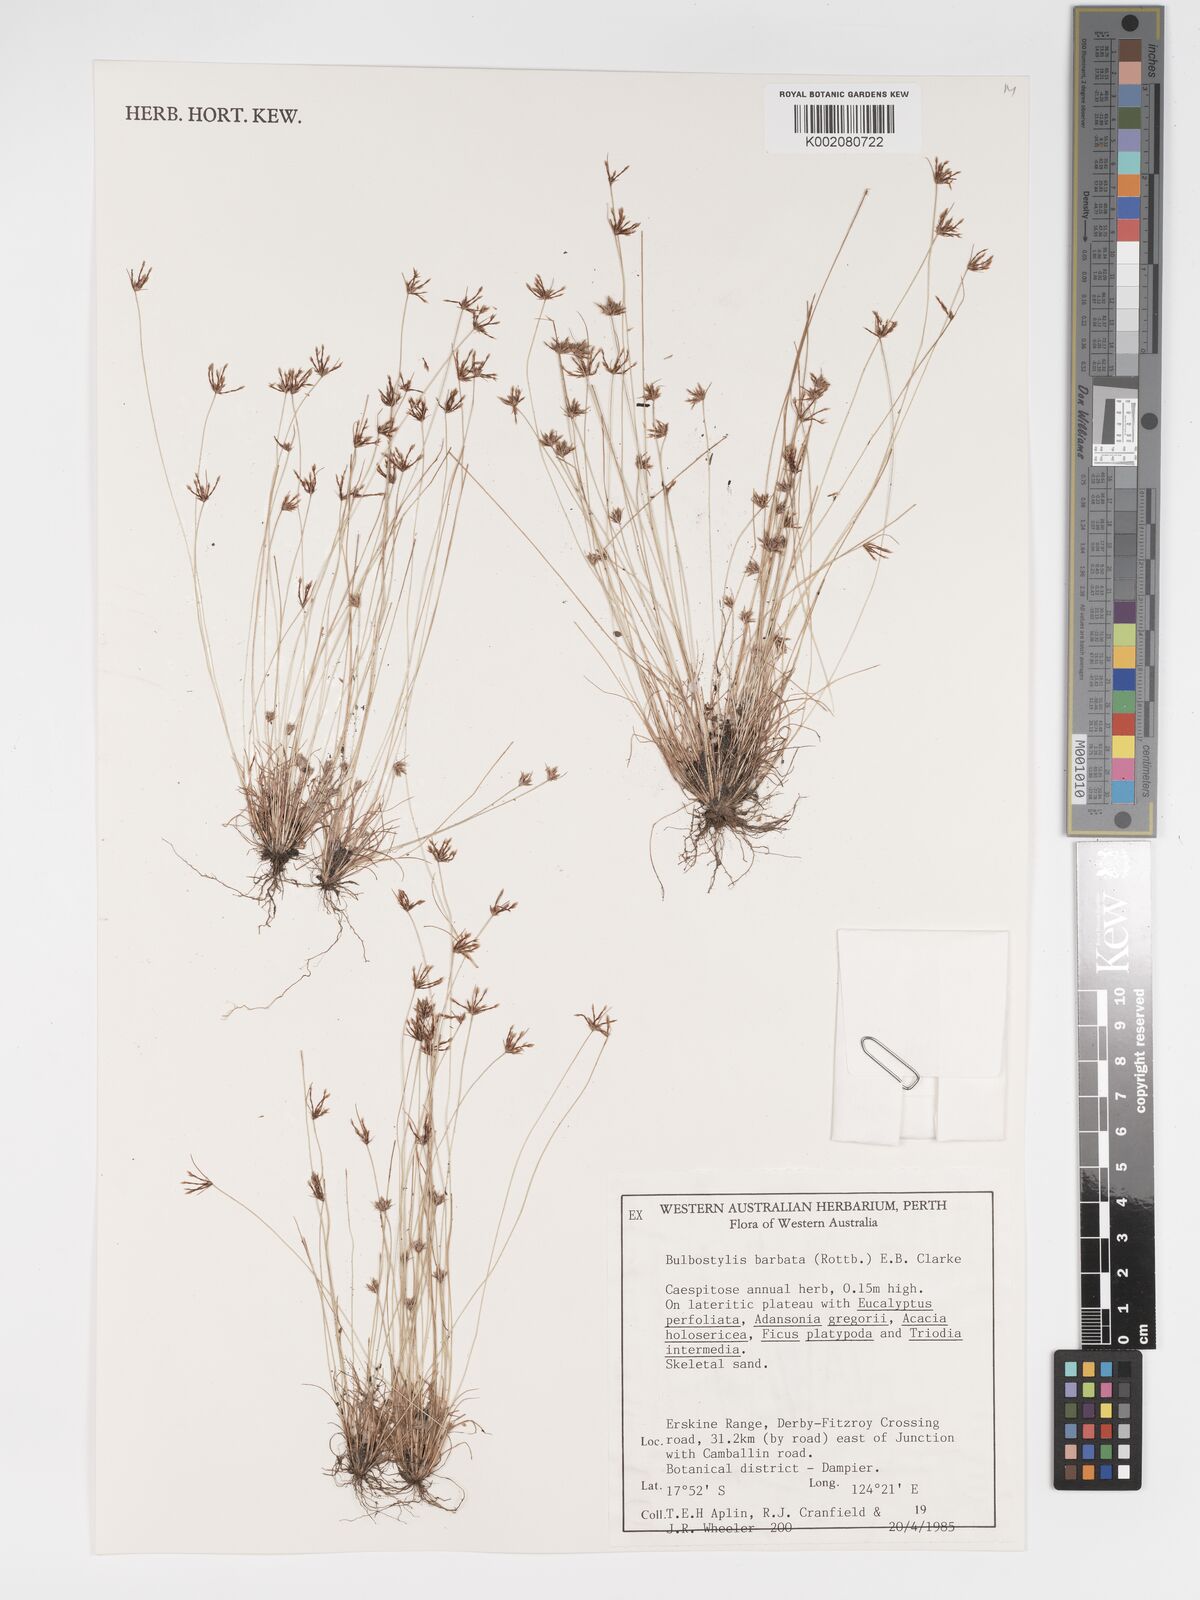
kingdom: Plantae
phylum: Tracheophyta
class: Liliopsida
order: Poales
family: Cyperaceae
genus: Bulbostylis
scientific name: Bulbostylis barbata
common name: Watergrass
